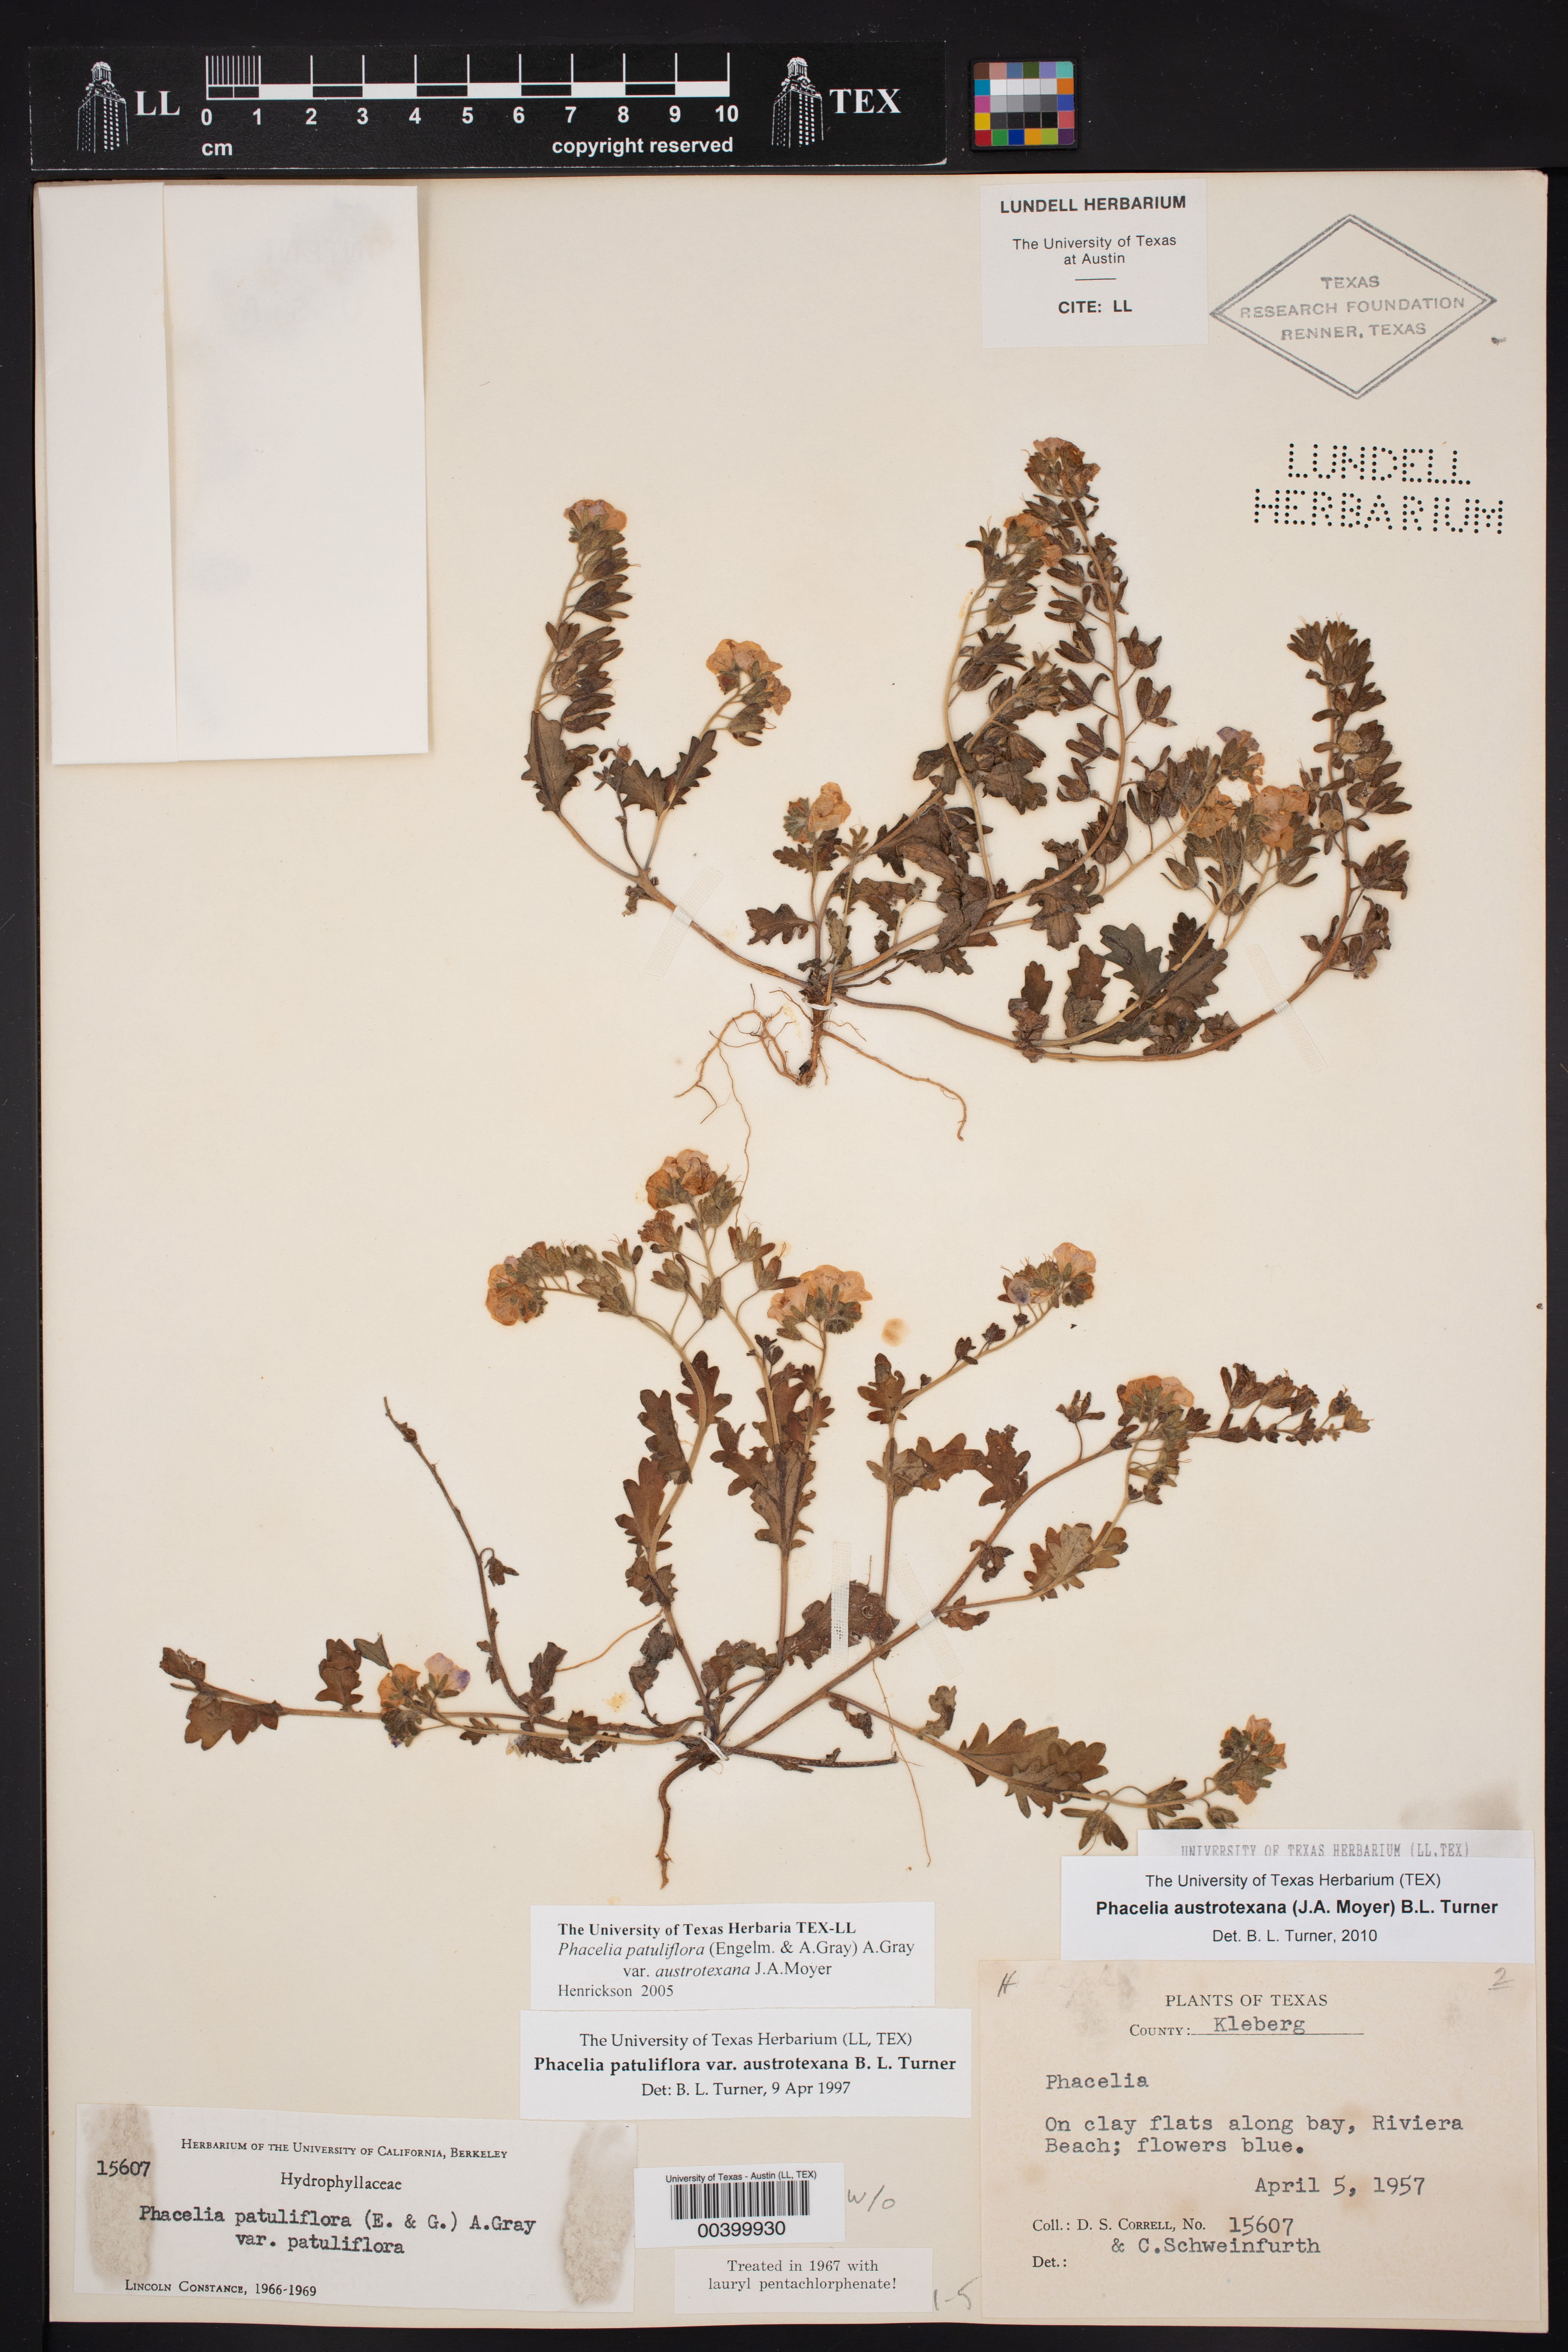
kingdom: Plantae
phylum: Tracheophyta
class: Magnoliopsida
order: Boraginales
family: Hydrophyllaceae
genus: Phacelia
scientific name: Phacelia austrotexana
